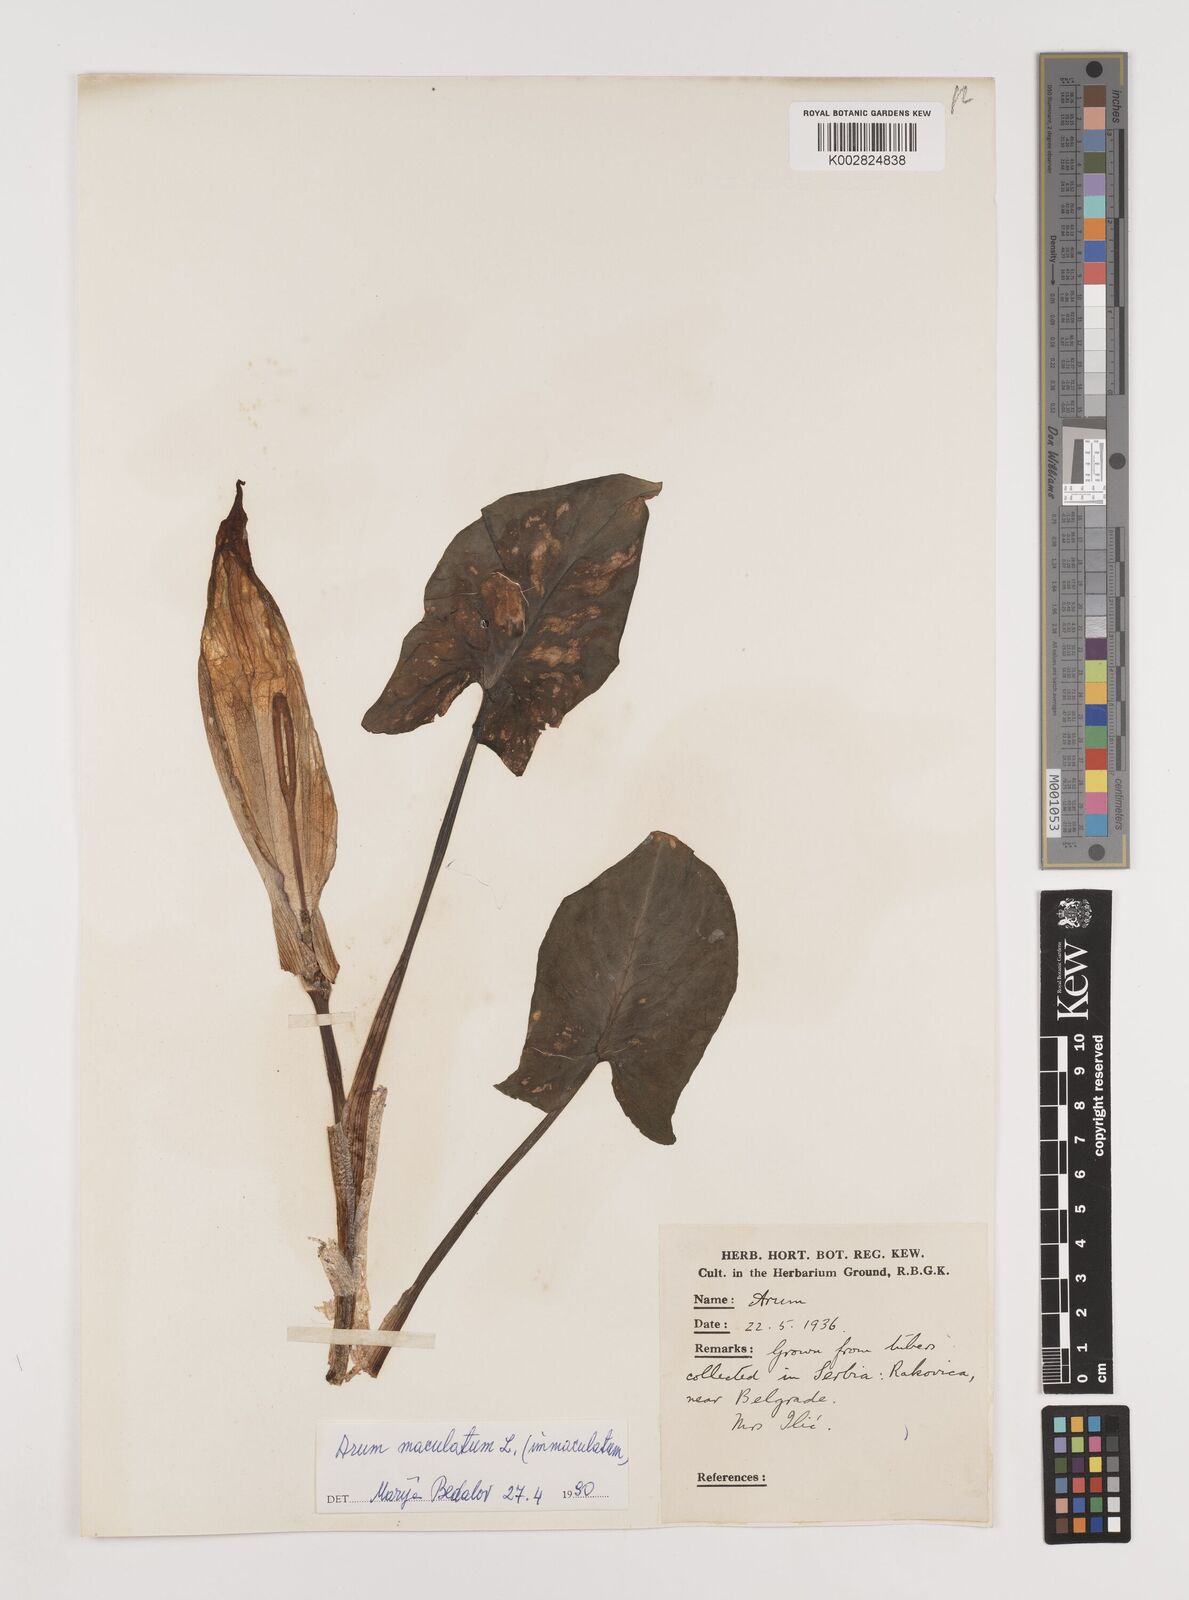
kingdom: Plantae
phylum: Tracheophyta
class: Liliopsida
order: Alismatales
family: Araceae
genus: Arum
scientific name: Arum maculatum
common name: Lords-and-ladies
